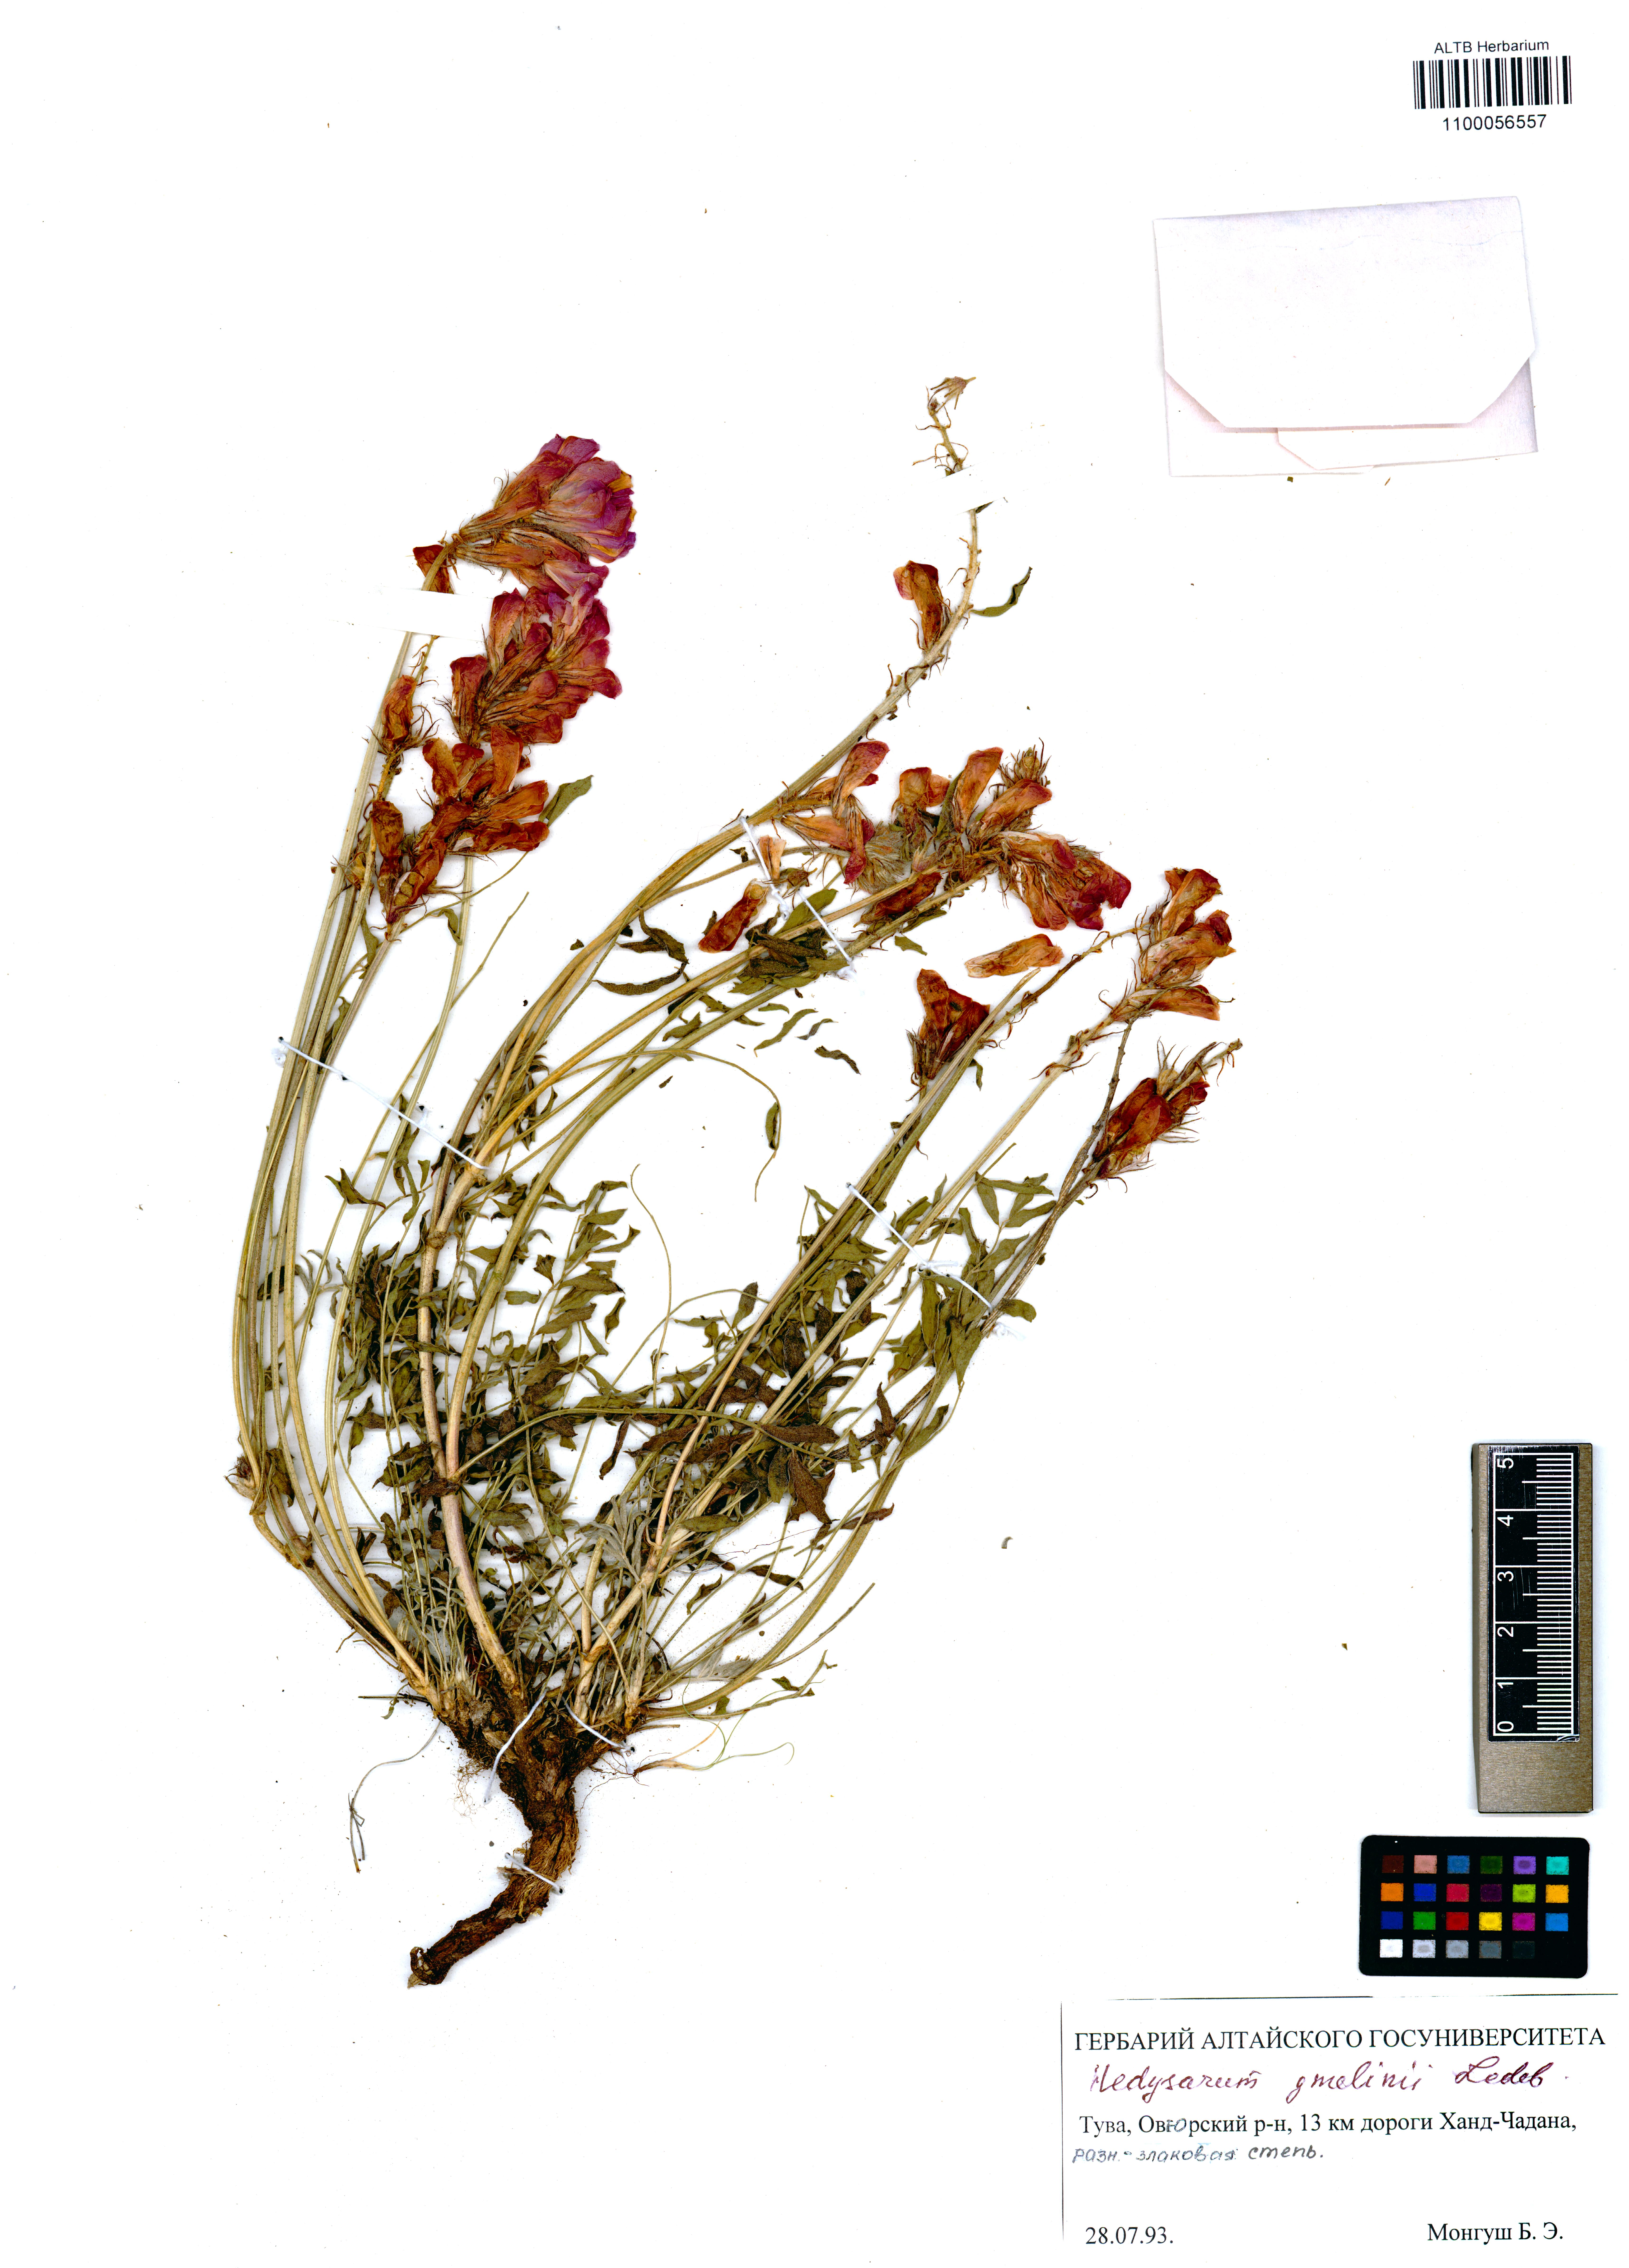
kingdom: Plantae
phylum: Tracheophyta
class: Magnoliopsida
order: Fabales
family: Fabaceae
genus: Hedysarum
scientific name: Hedysarum gmelinii
